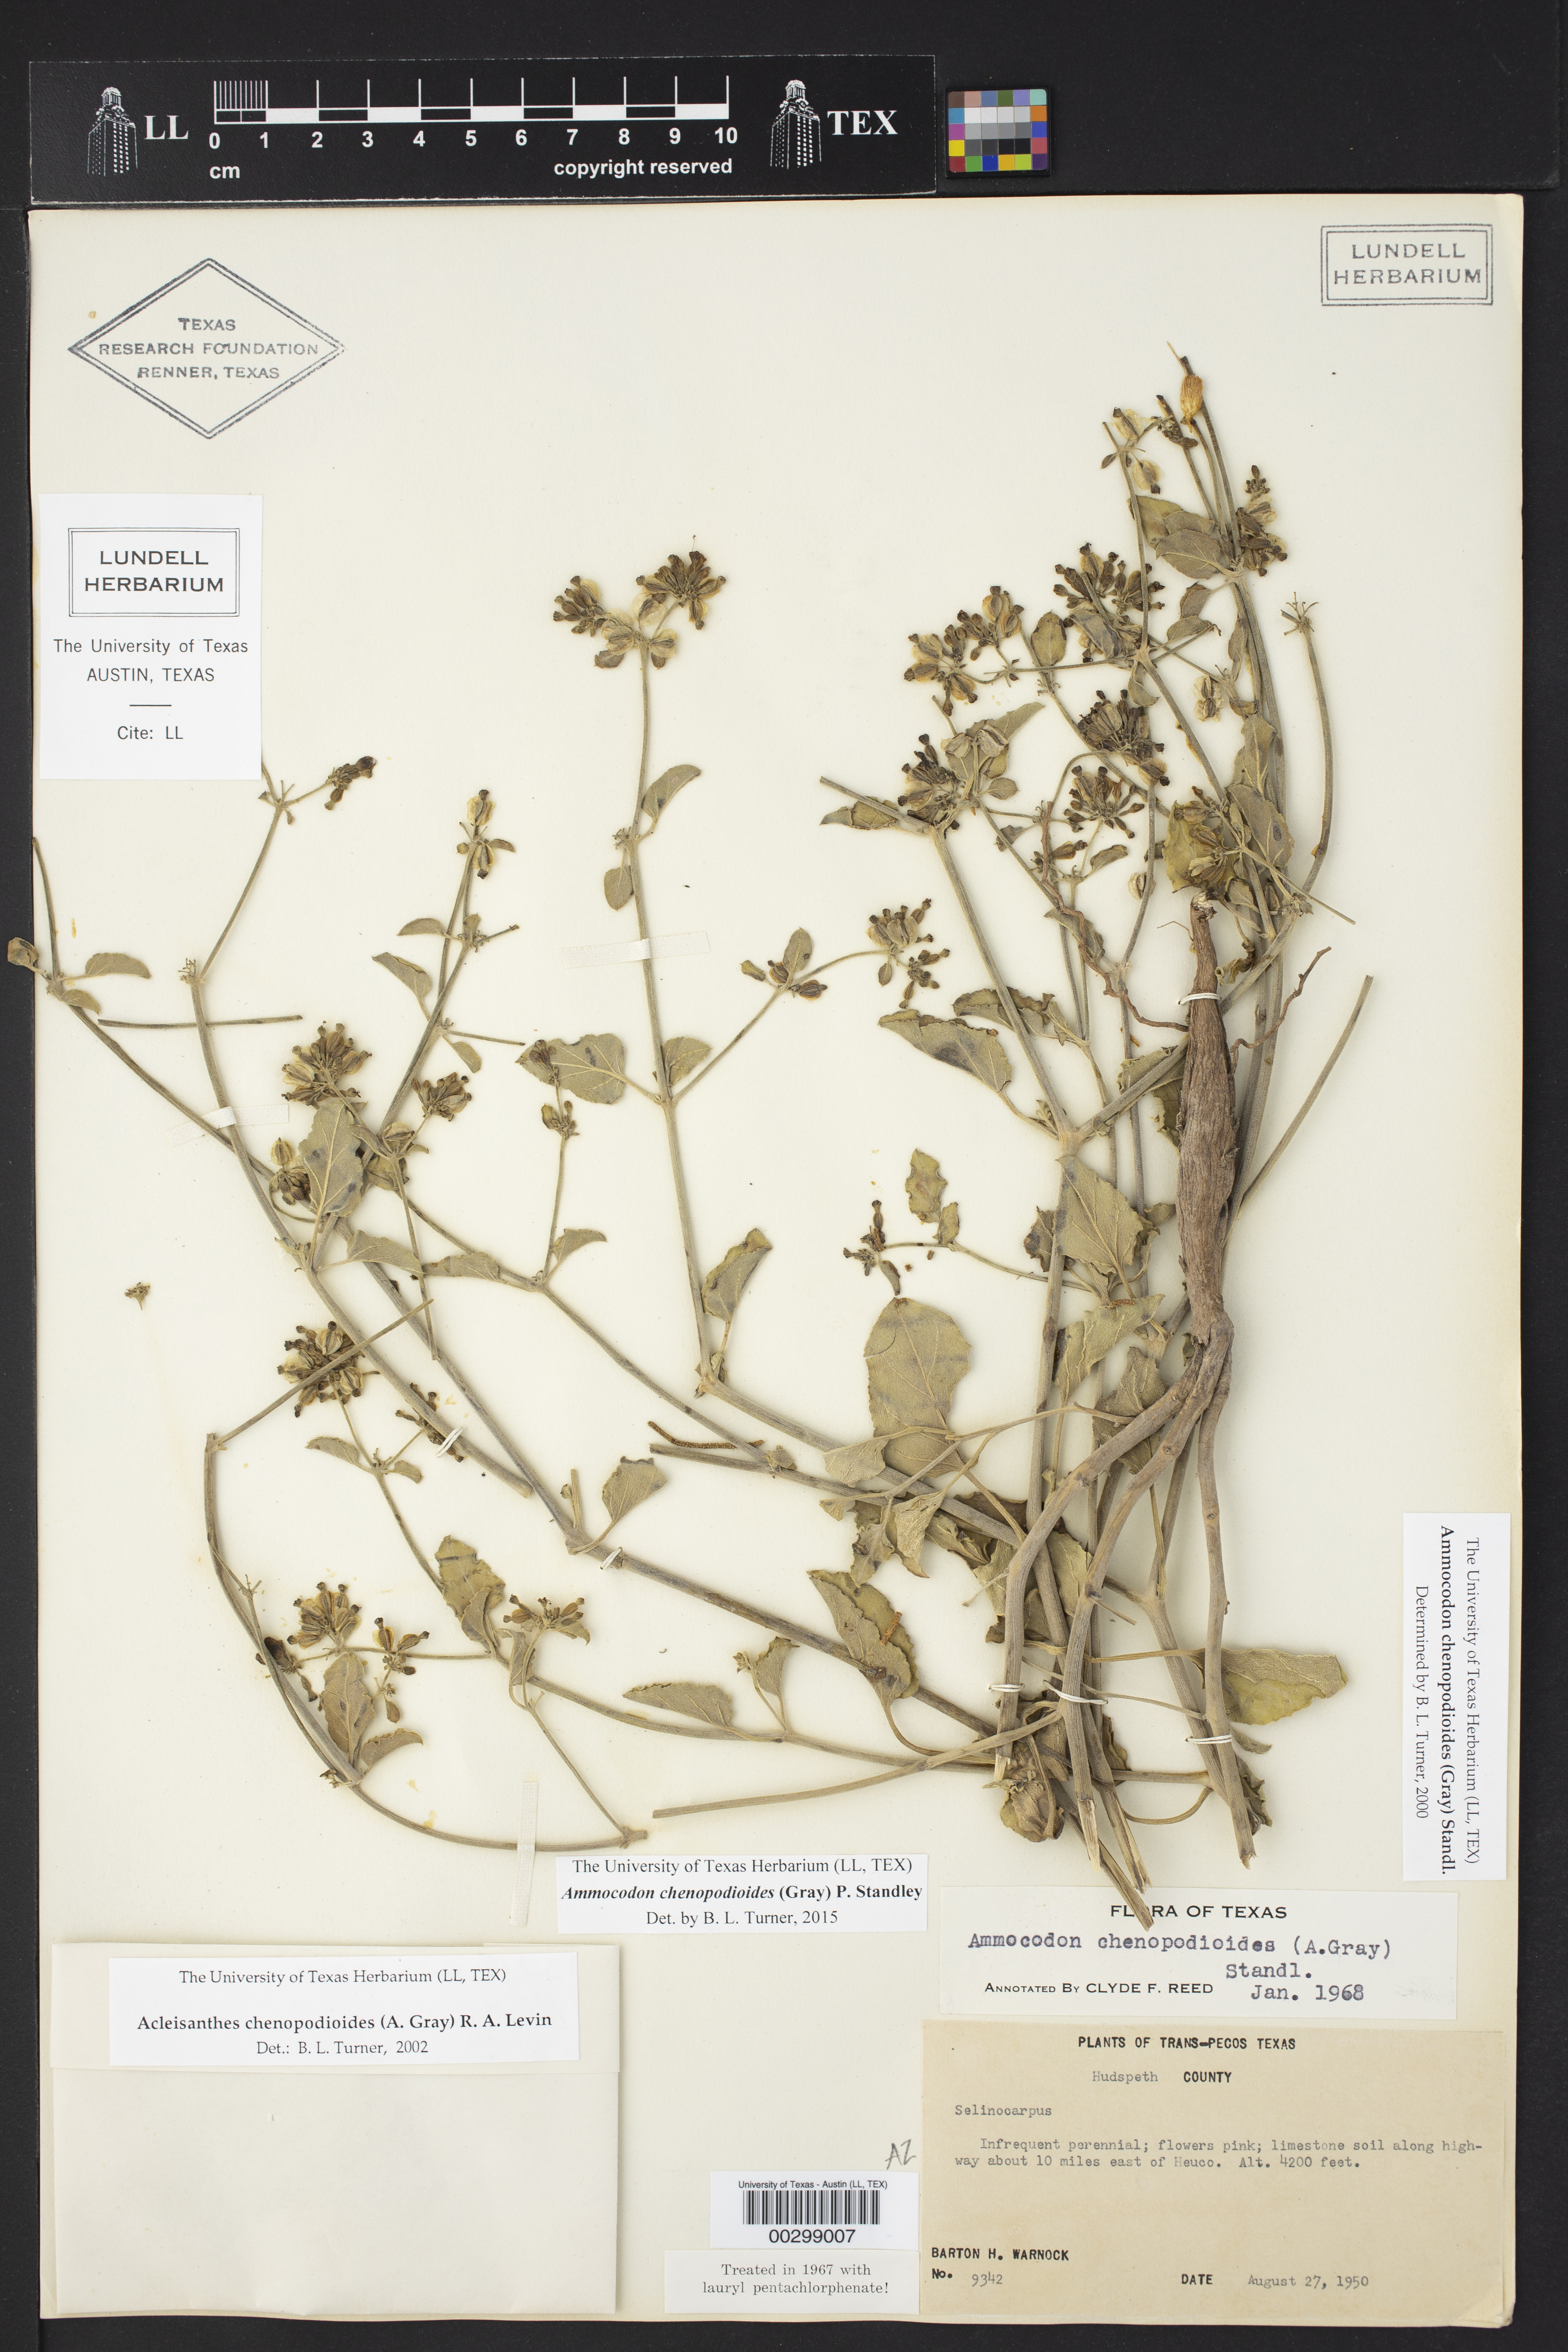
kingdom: Plantae
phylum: Tracheophyta
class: Magnoliopsida
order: Caryophyllales
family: Nyctaginaceae
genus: Acleisanthes
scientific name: Acleisanthes chenopodioides
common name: Goosefoot moonpod
